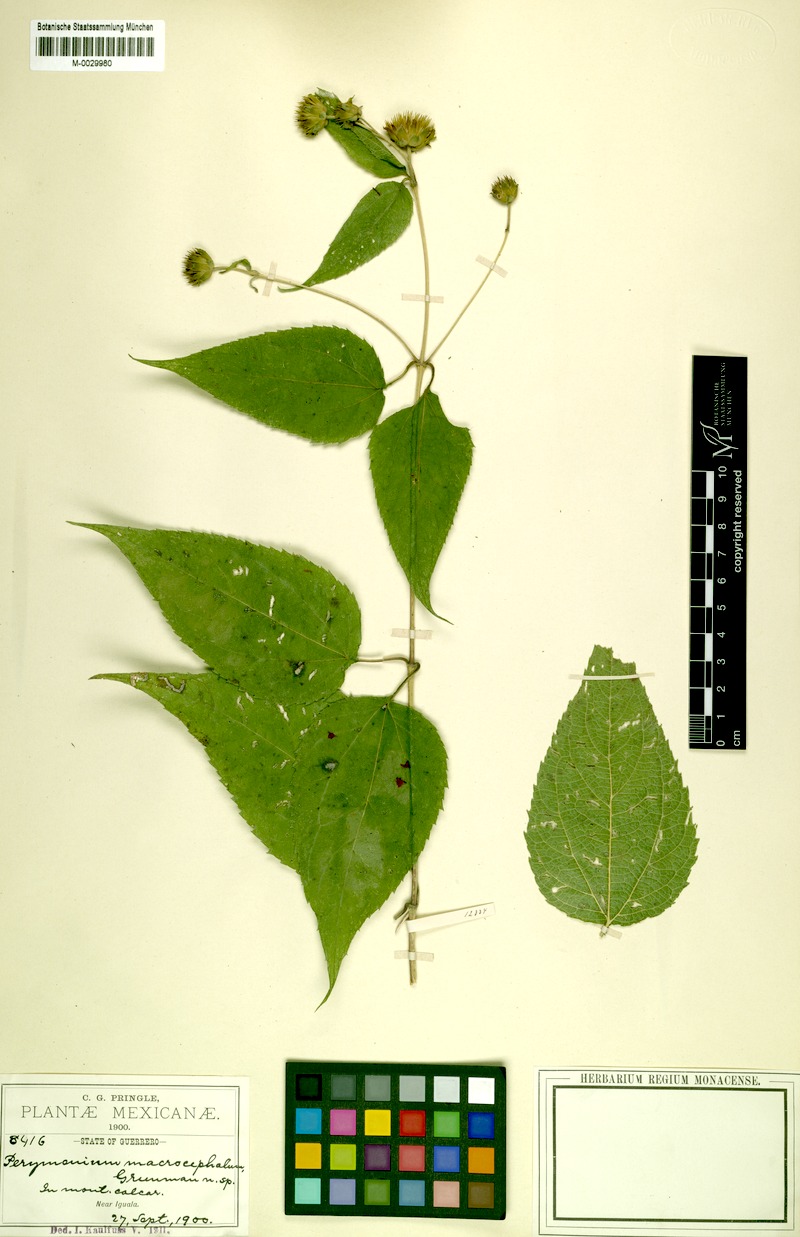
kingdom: Plantae
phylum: Tracheophyta
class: Magnoliopsida
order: Asterales
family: Asteraceae
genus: Perymenium
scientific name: Perymenium macrocephalum
